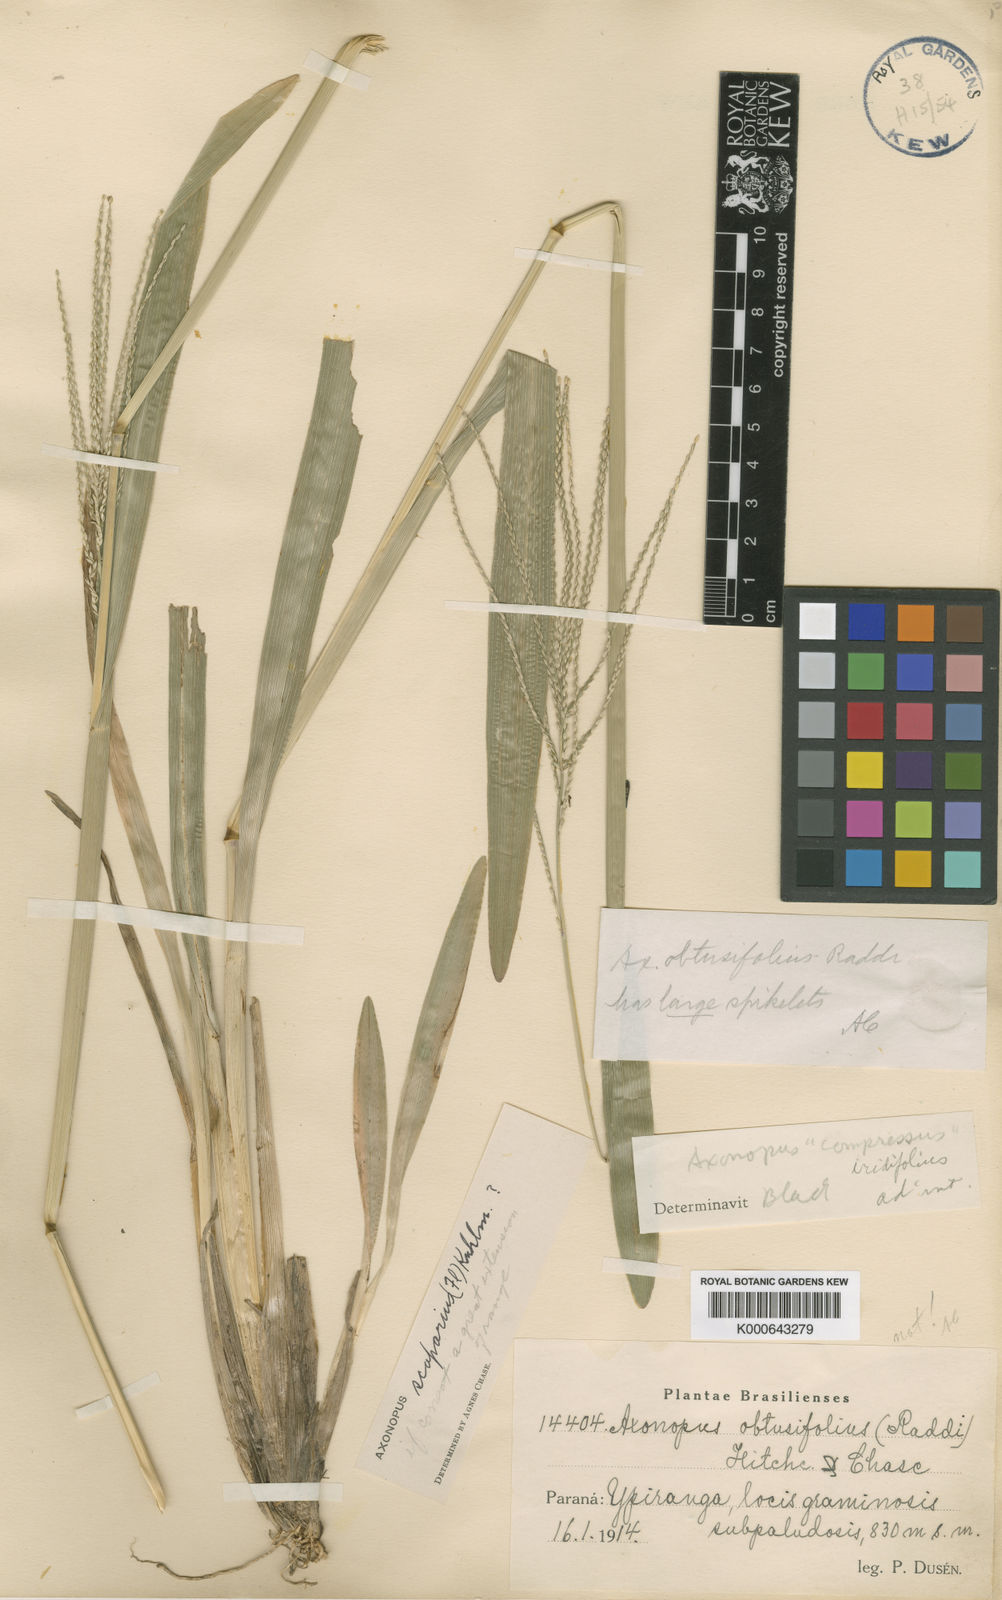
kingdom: Plantae
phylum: Tracheophyta
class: Liliopsida
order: Poales
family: Poaceae
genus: Axonopus
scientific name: Axonopus polystachyus
